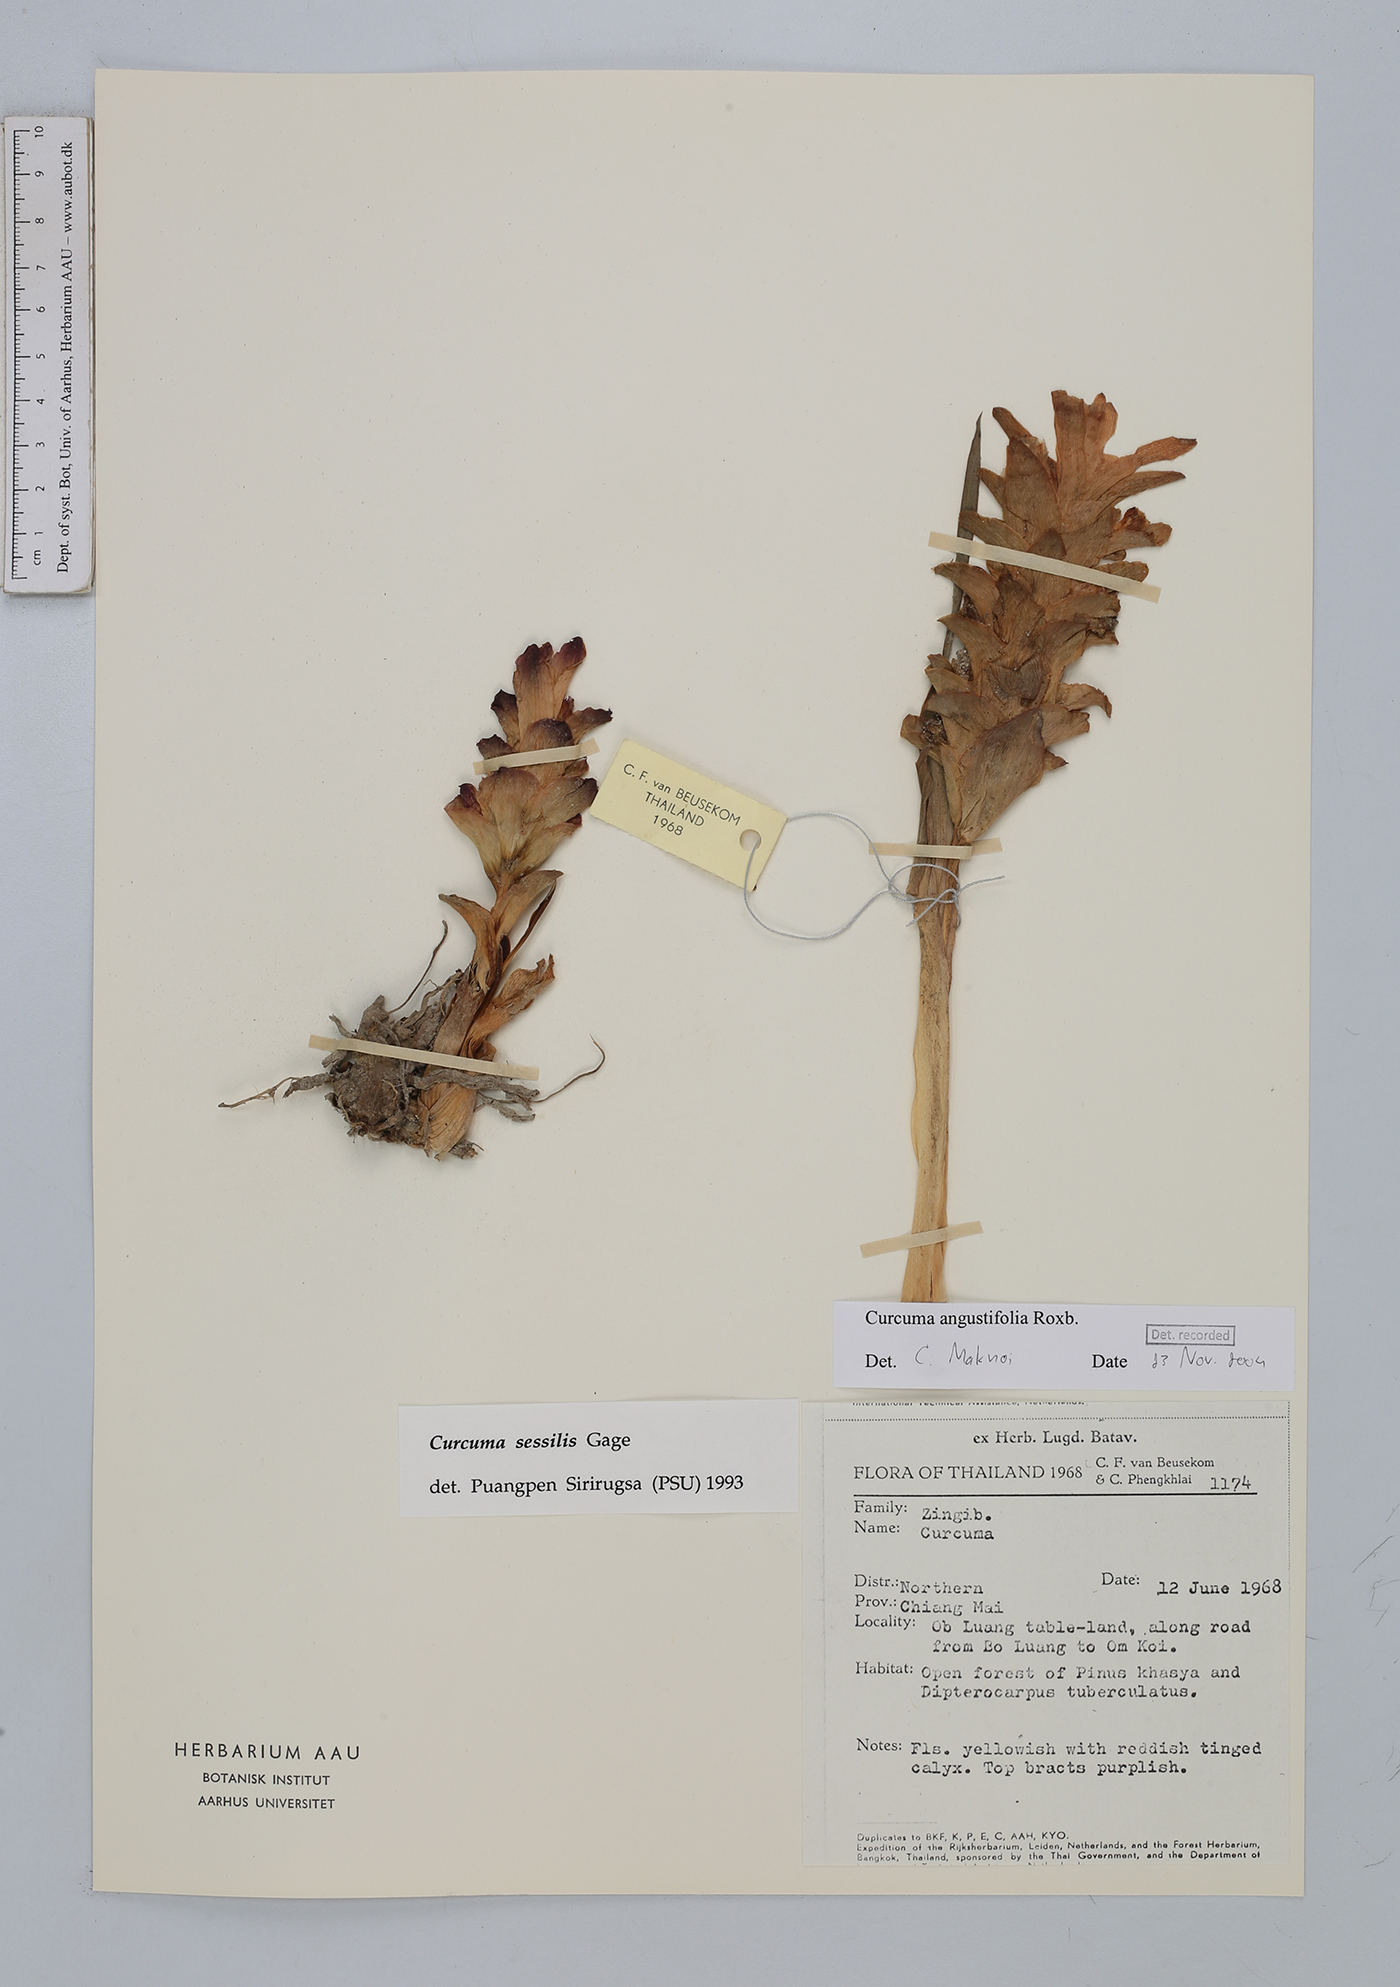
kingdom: Plantae
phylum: Tracheophyta
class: Liliopsida
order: Zingiberales
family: Zingiberaceae
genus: Curcuma
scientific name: Curcuma angustifolia
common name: East indian arrowroot
